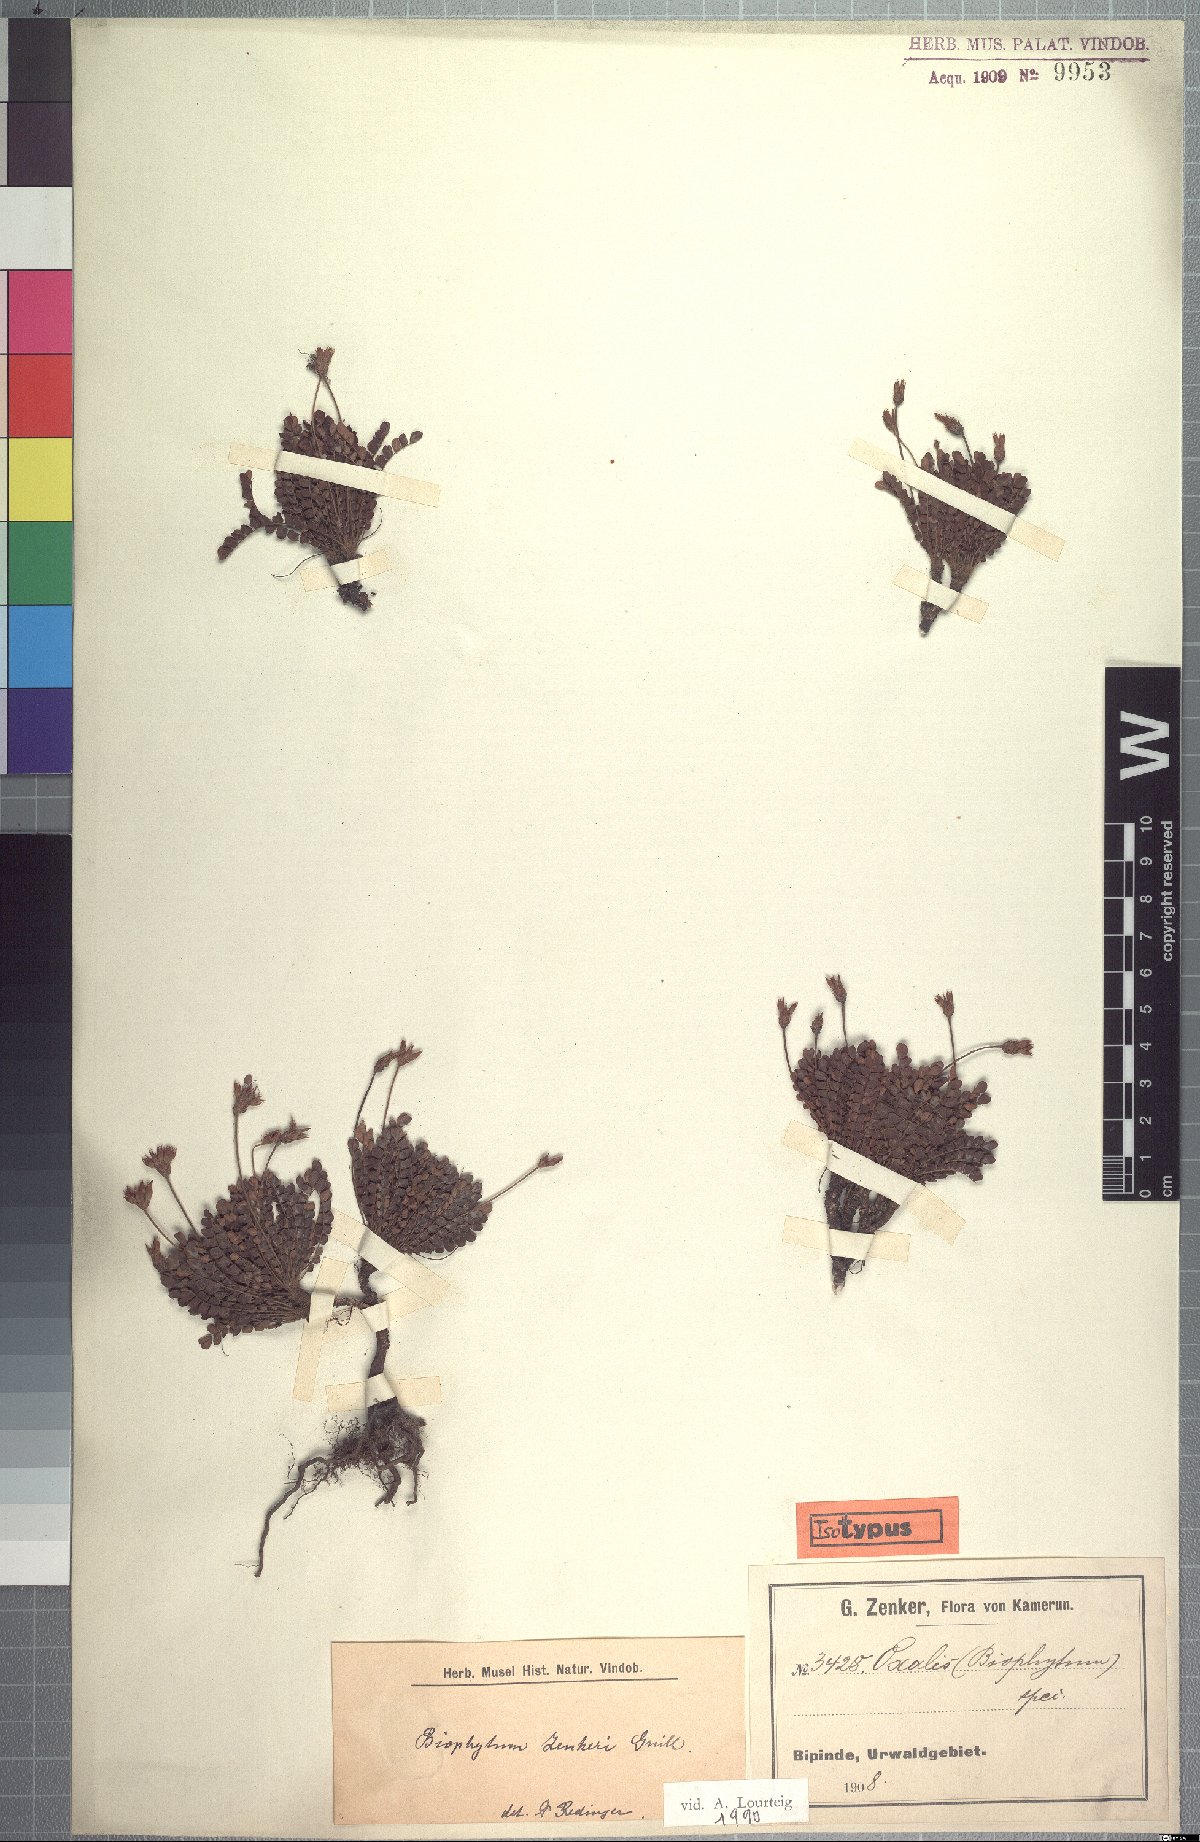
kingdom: Plantae
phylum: Tracheophyta
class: Magnoliopsida
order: Oxalidales
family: Oxalidaceae
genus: Biophytum
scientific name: Biophytum zenkeri
